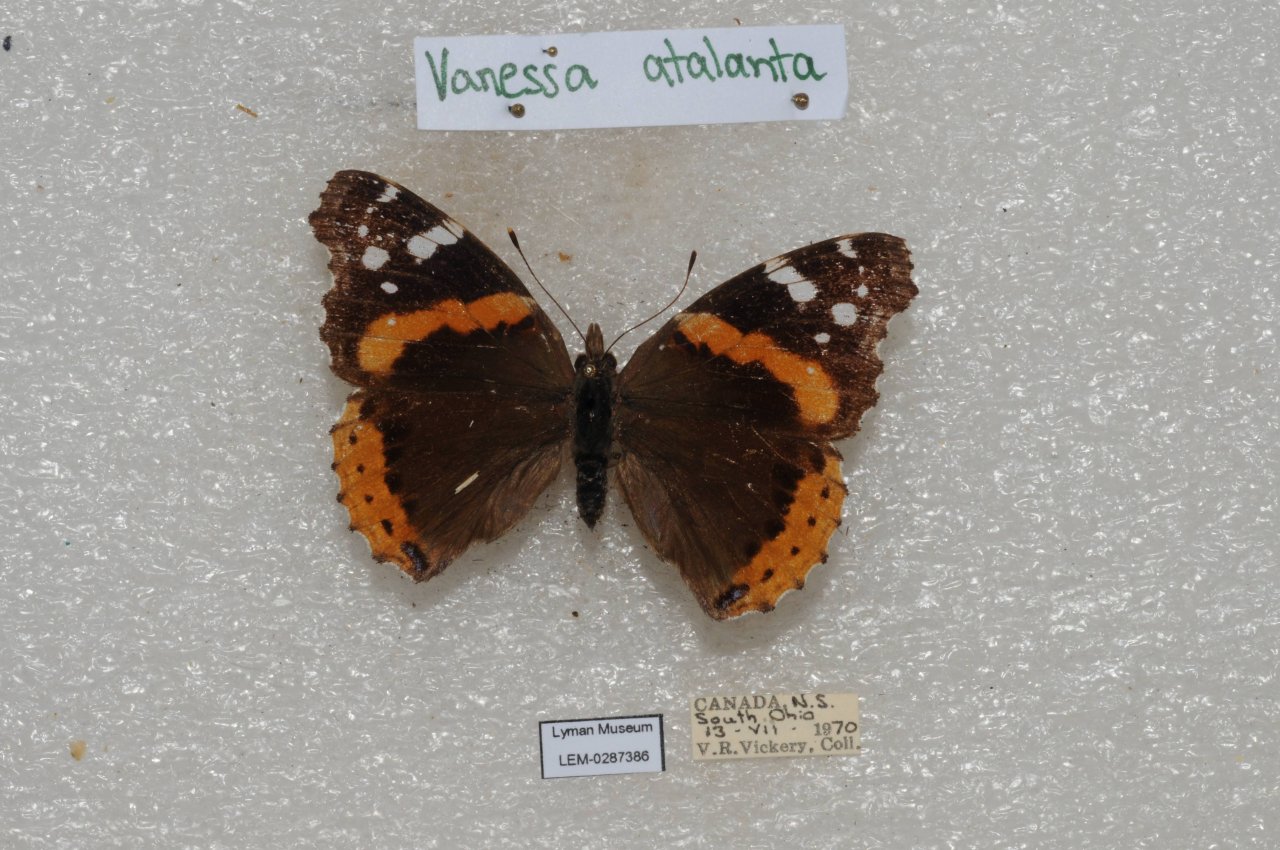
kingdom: Animalia
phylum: Arthropoda
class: Insecta
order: Lepidoptera
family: Nymphalidae
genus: Vanessa
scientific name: Vanessa atalanta
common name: Red Admiral
